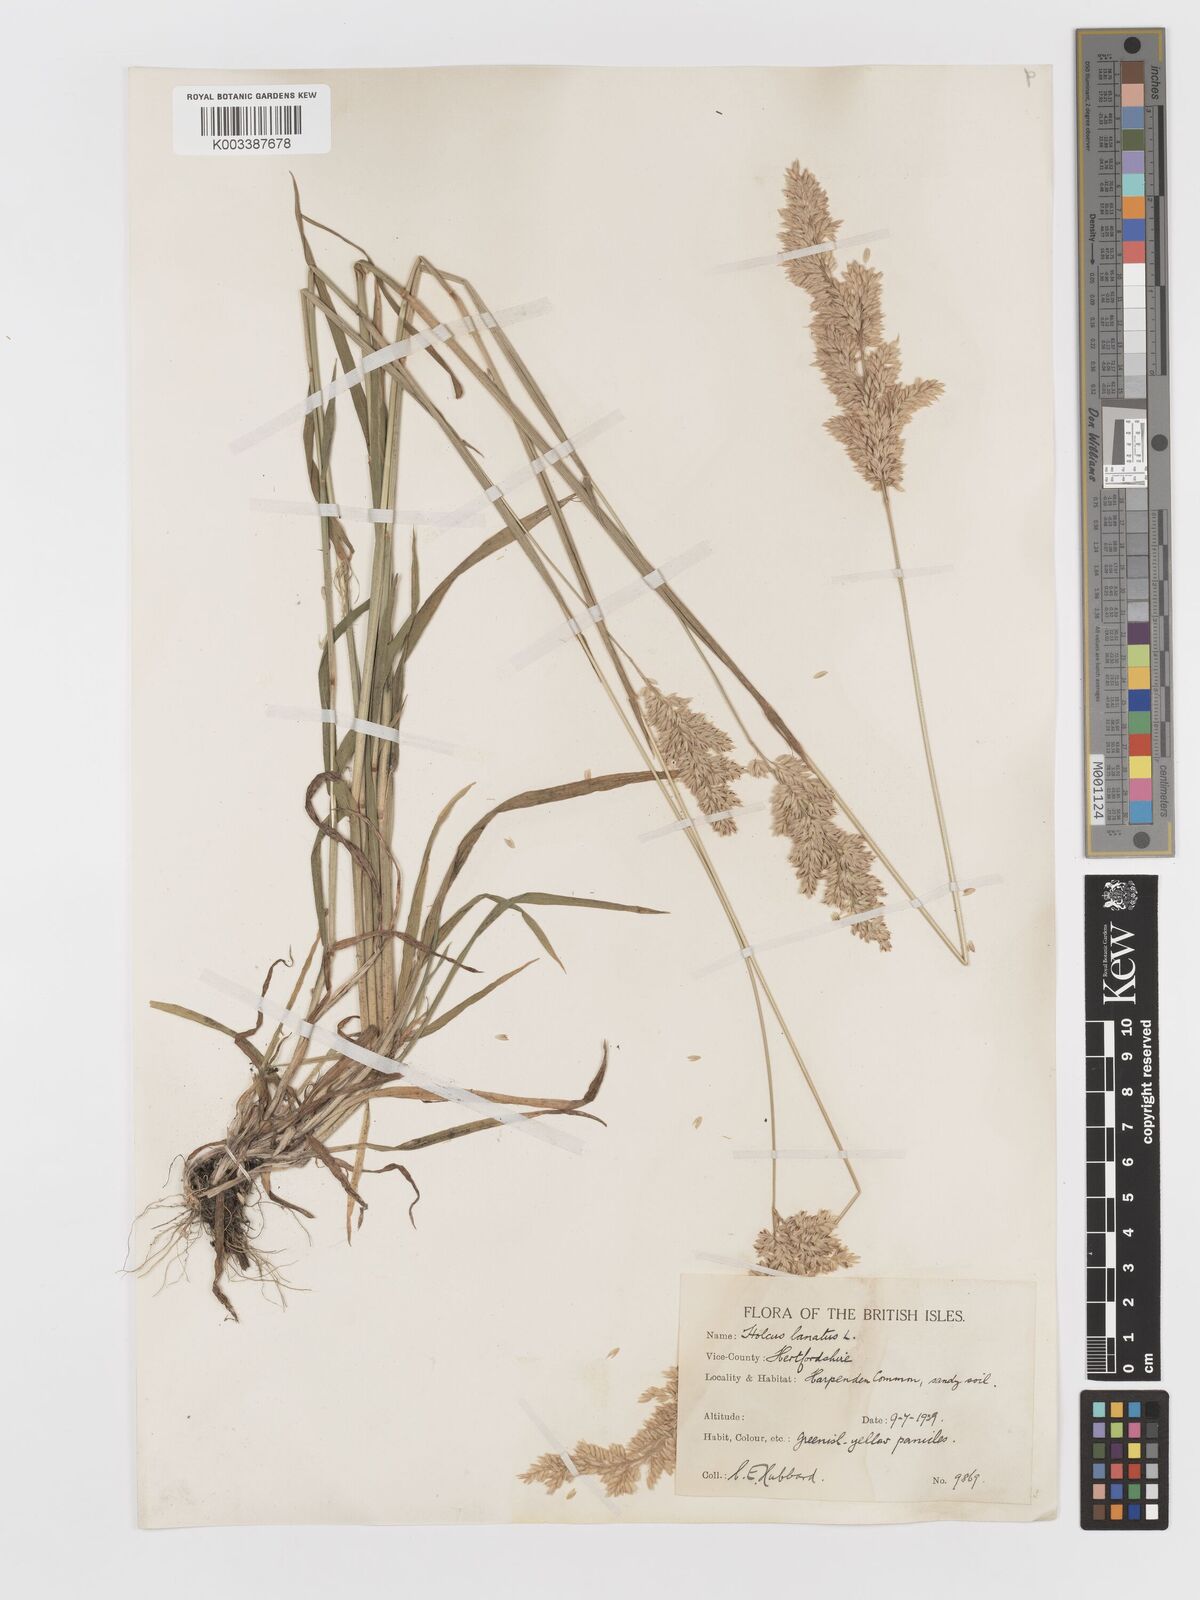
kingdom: Plantae
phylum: Tracheophyta
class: Liliopsida
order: Poales
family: Poaceae
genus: Holcus
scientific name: Holcus lanatus
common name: Yorkshire-fog
